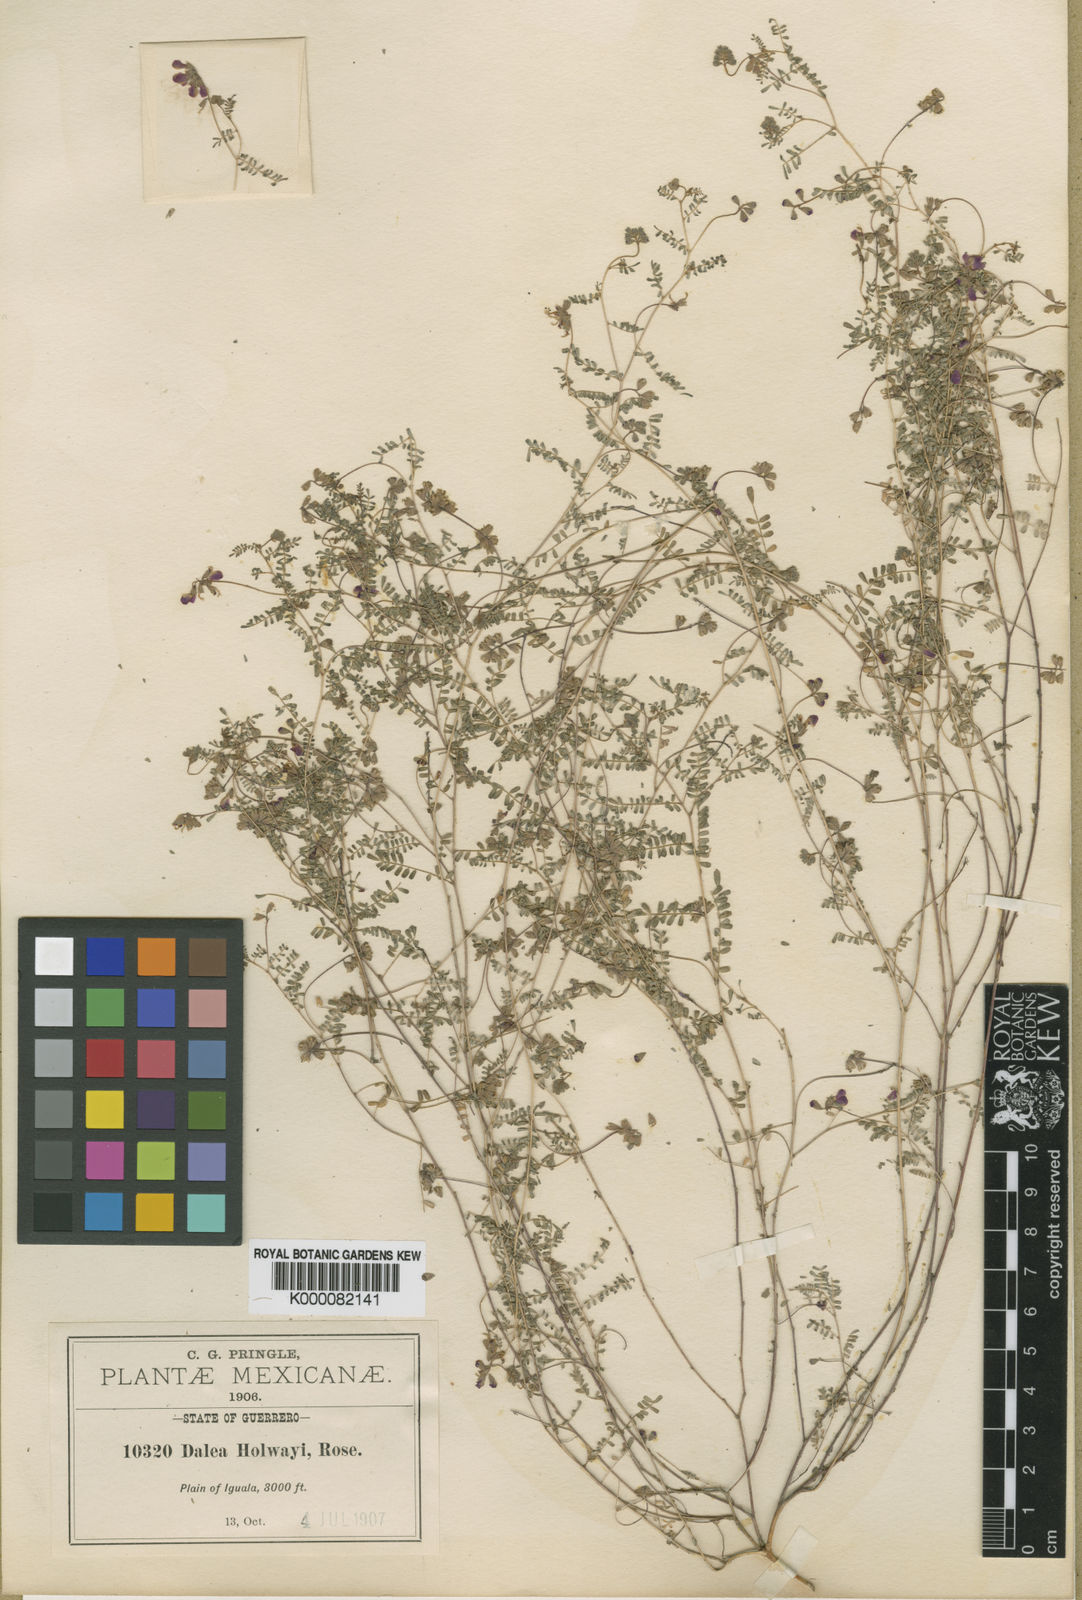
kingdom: Plantae
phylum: Tracheophyta
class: Magnoliopsida
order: Fabales
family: Fabaceae
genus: Marina
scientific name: Marina holwayi
